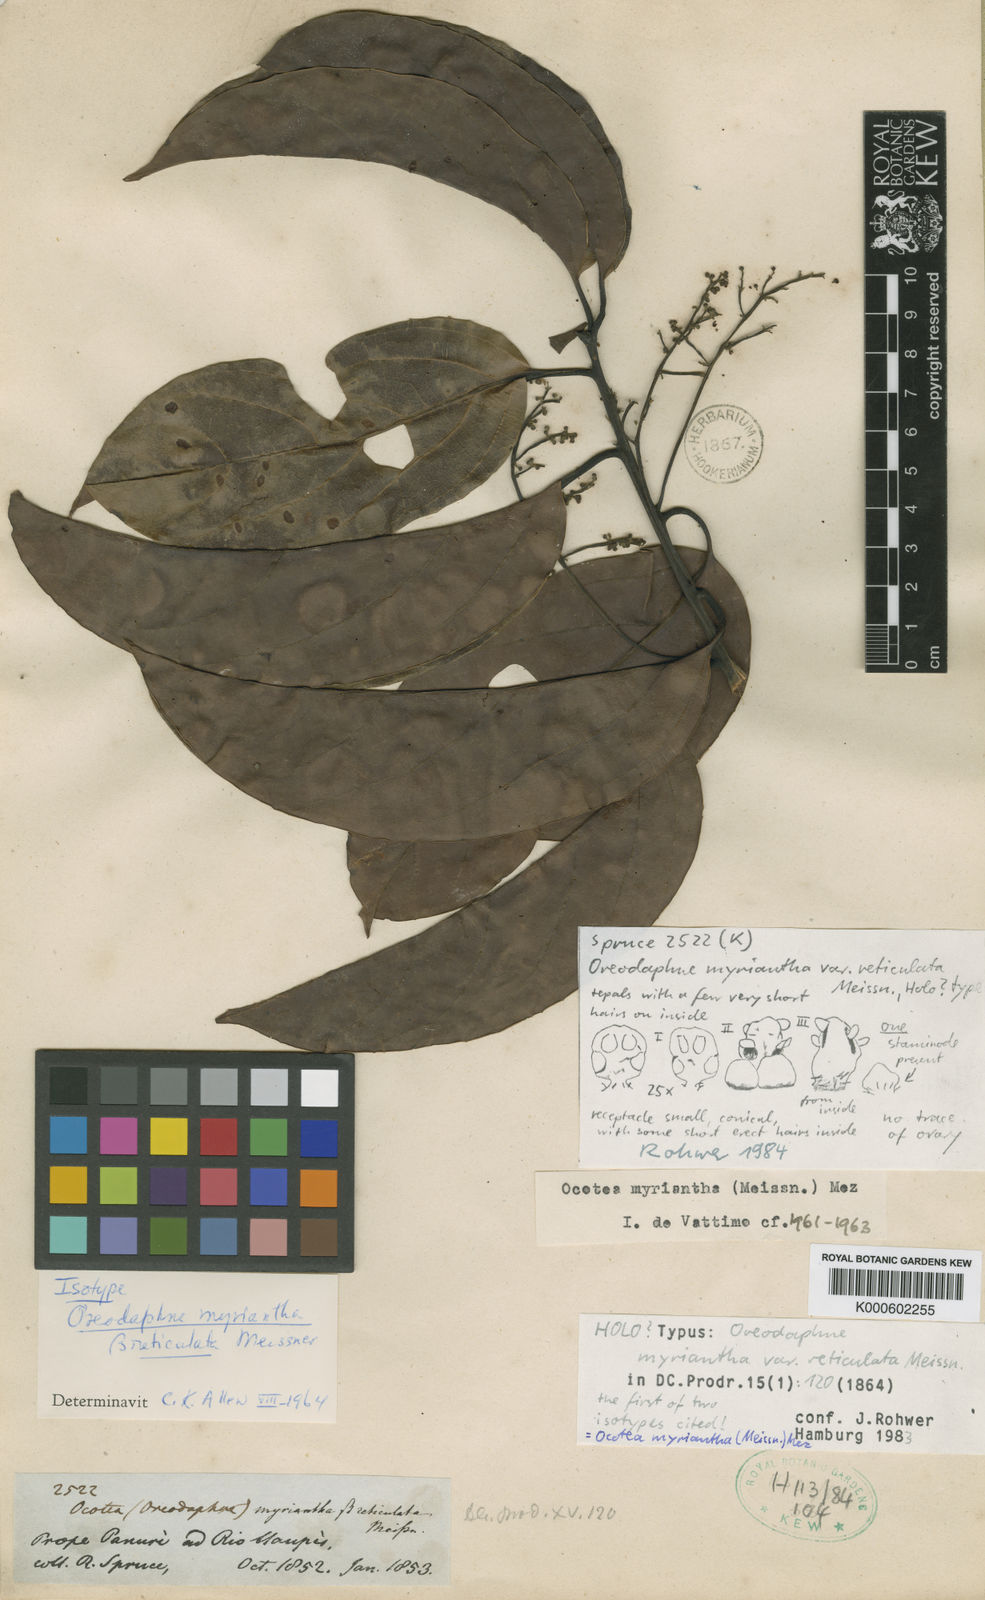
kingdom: Plantae
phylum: Tracheophyta
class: Magnoliopsida
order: Laurales
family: Lauraceae
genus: Ocotea
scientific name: Ocotea myriantha
